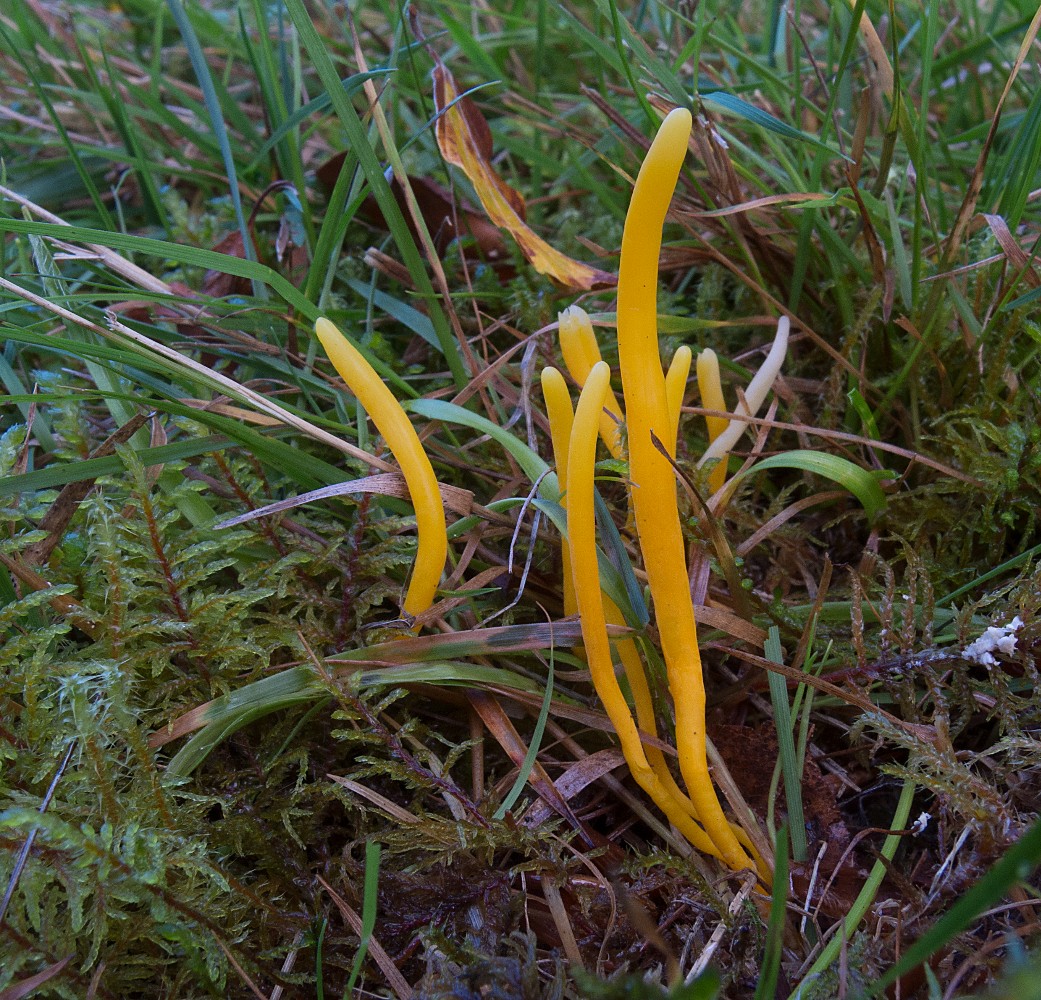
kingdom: Fungi
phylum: Basidiomycota
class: Agaricomycetes
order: Agaricales
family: Clavariaceae
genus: Clavulinopsis
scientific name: Clavulinopsis helvola
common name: orangegul køllesvamp
